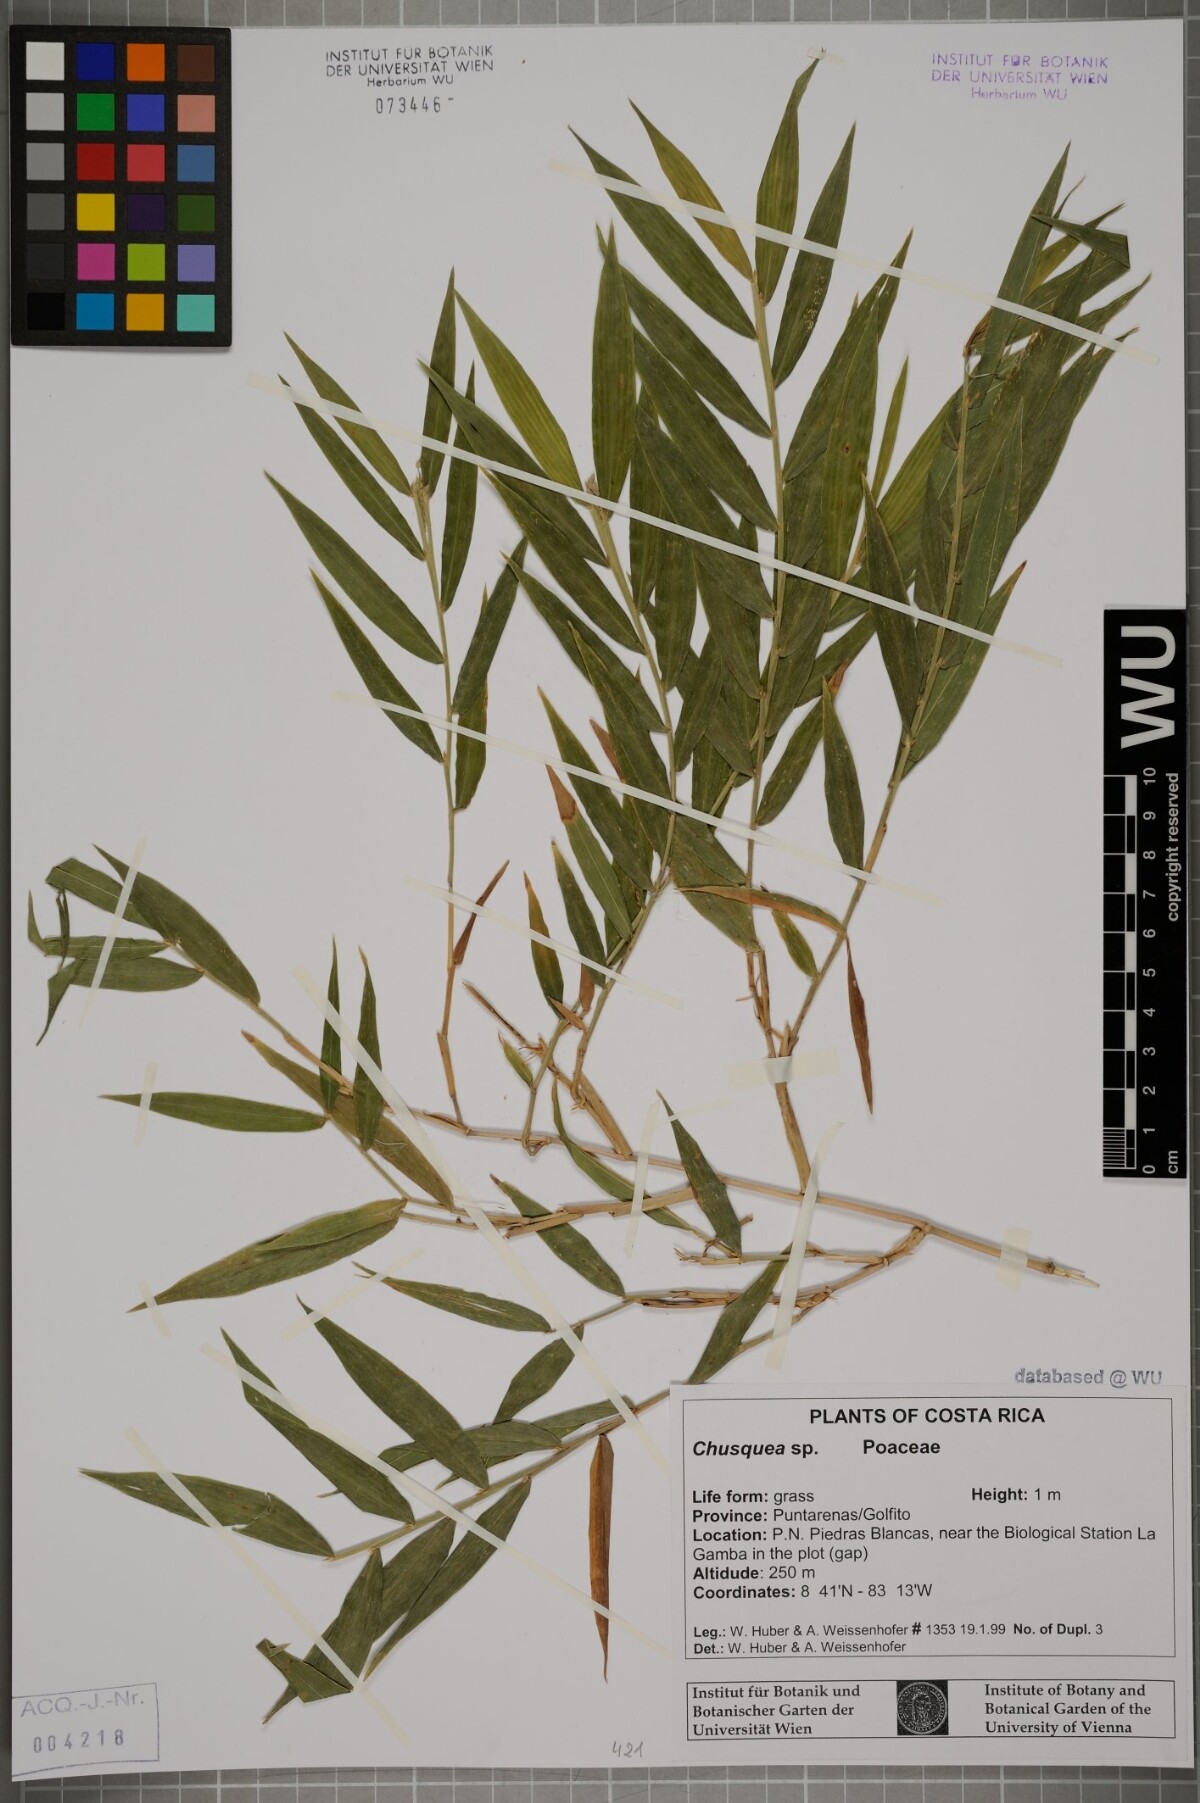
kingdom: Plantae
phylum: Tracheophyta
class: Liliopsida
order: Poales
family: Poaceae
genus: Chusquea
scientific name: Chusquea
